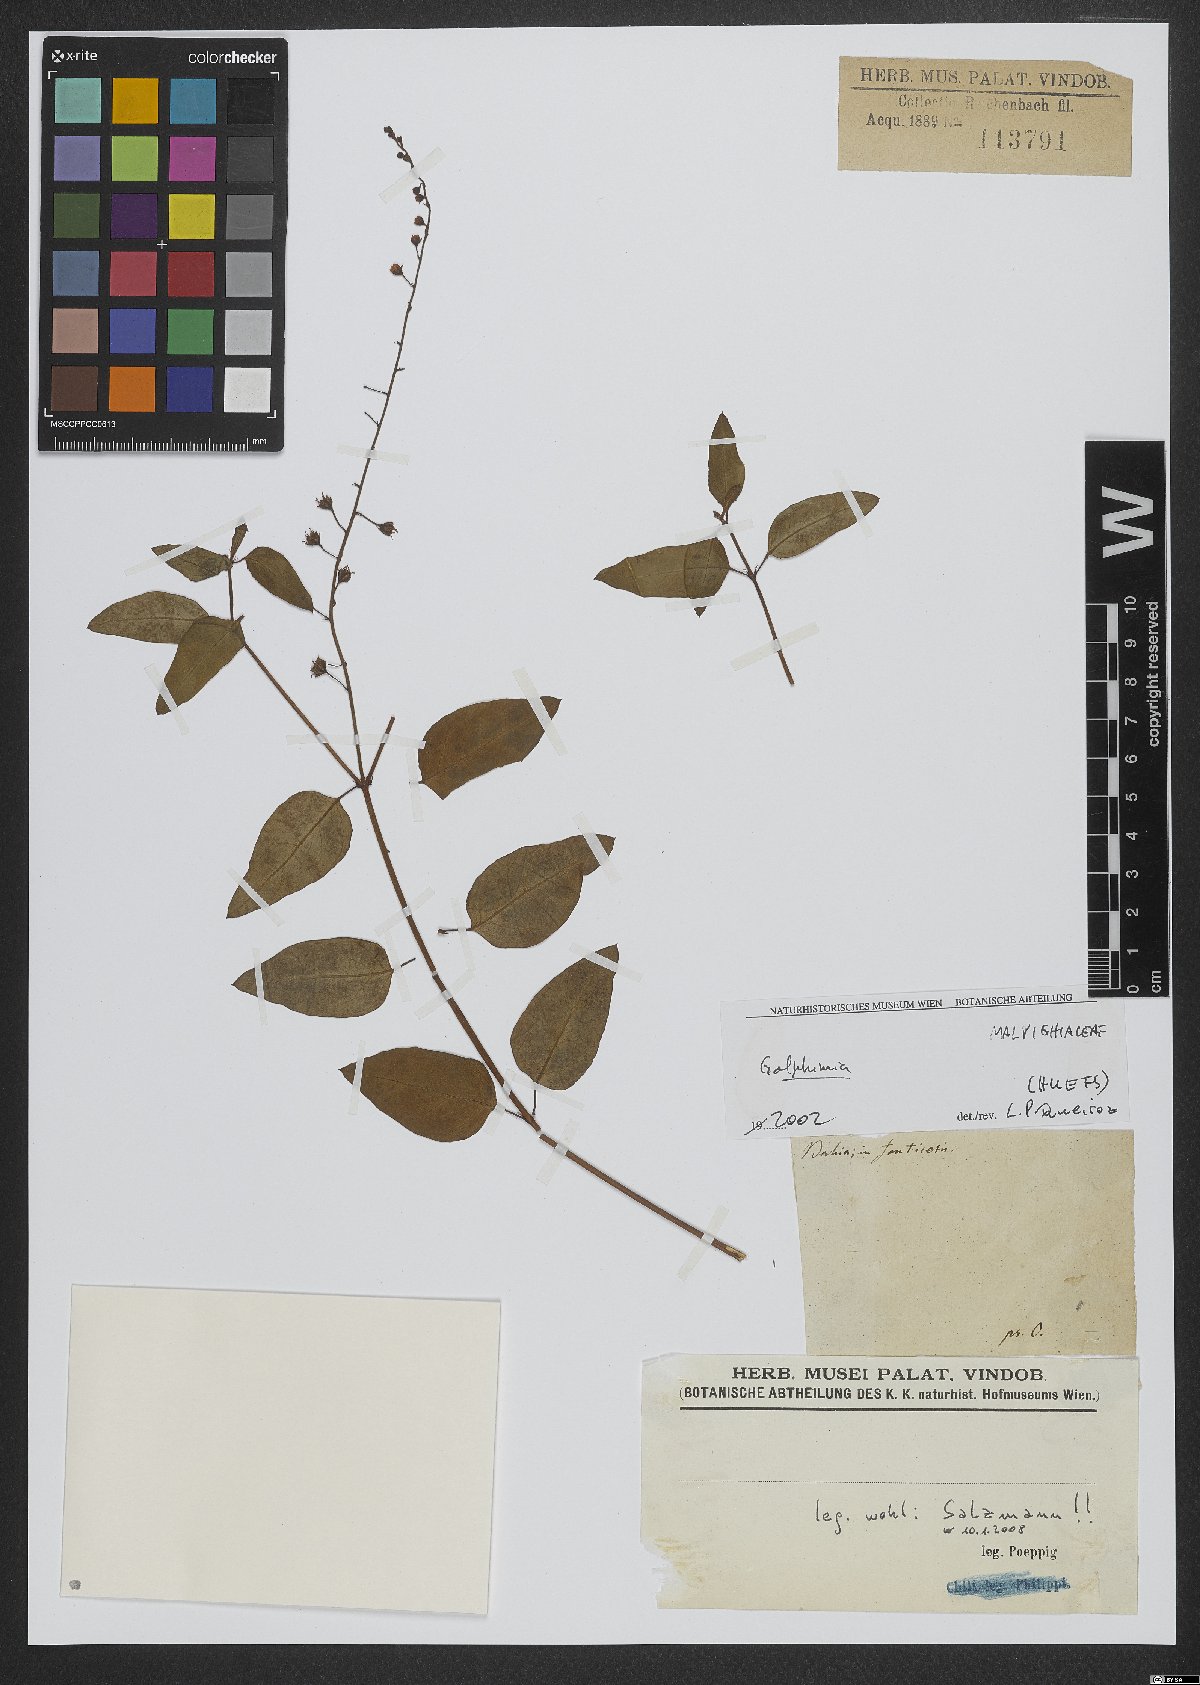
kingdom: Plantae
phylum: Tracheophyta
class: Magnoliopsida
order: Malpighiales
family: Malpighiaceae
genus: Galphimia
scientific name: Galphimia
